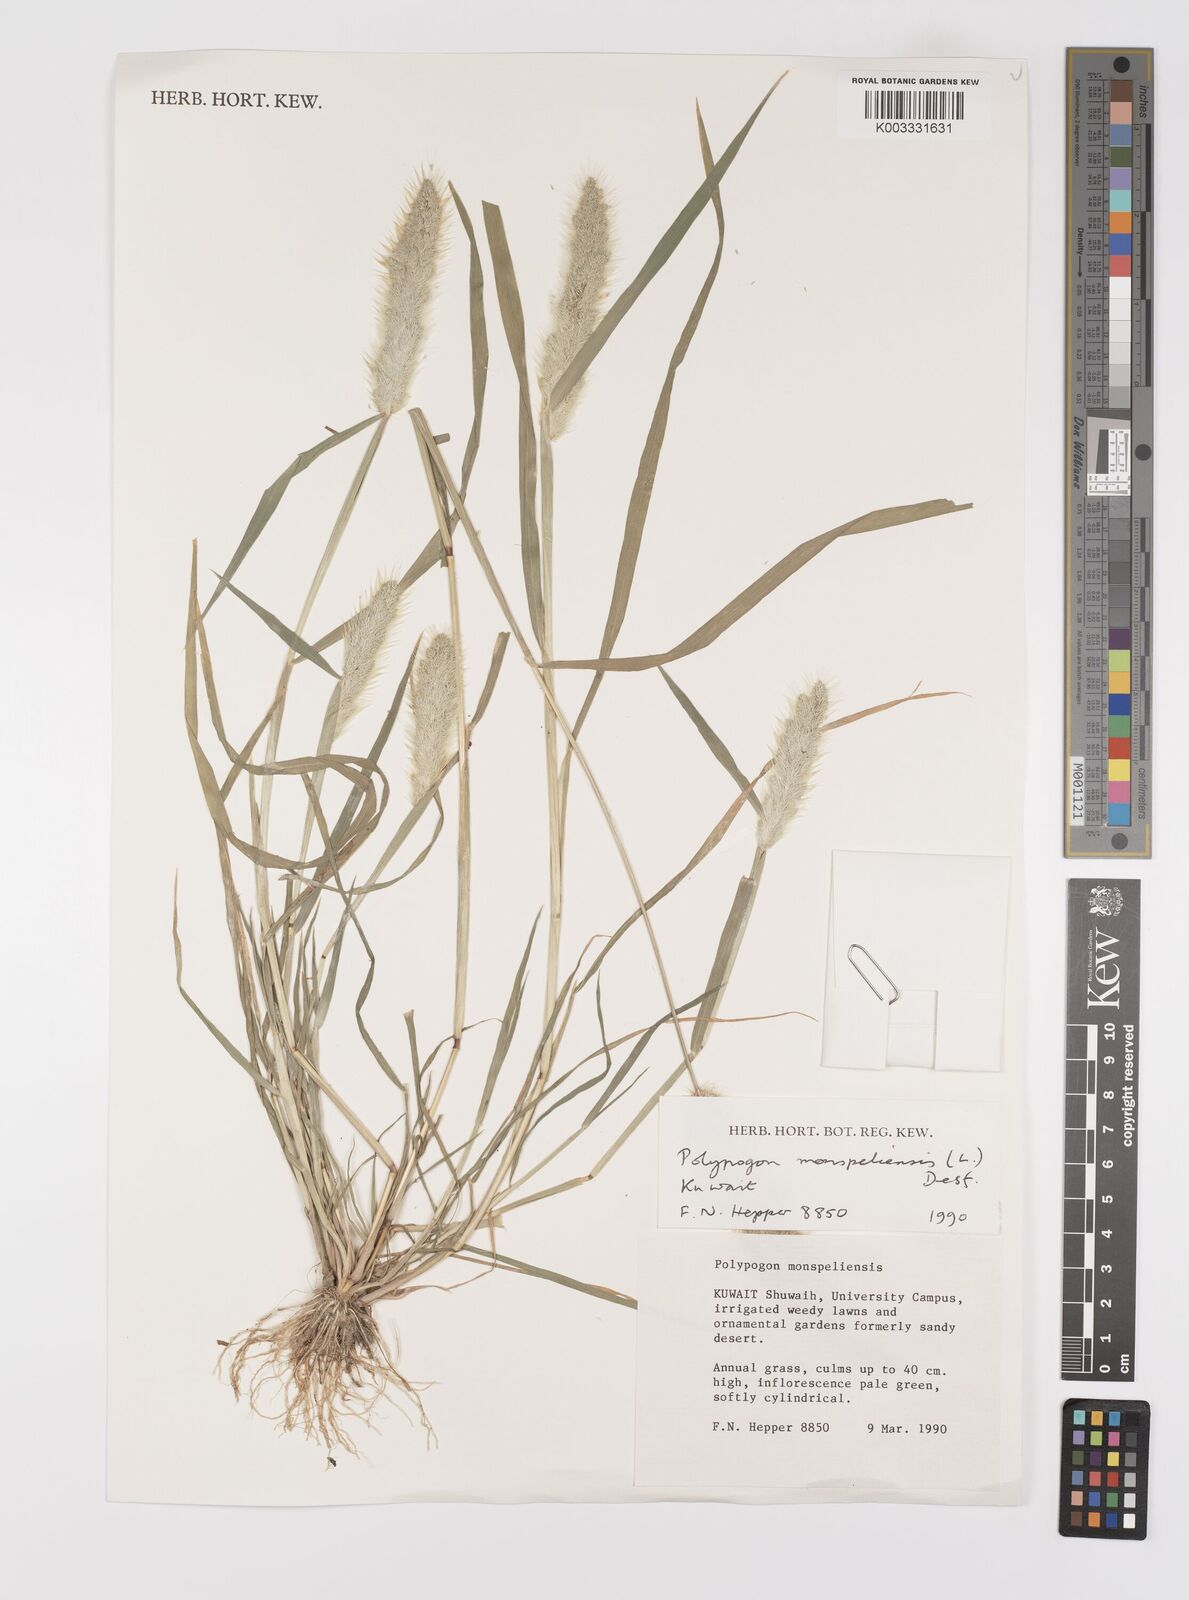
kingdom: Plantae
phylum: Tracheophyta
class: Liliopsida
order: Poales
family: Poaceae
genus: Polypogon
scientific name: Polypogon monspeliensis
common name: Annual rabbitsfoot grass
